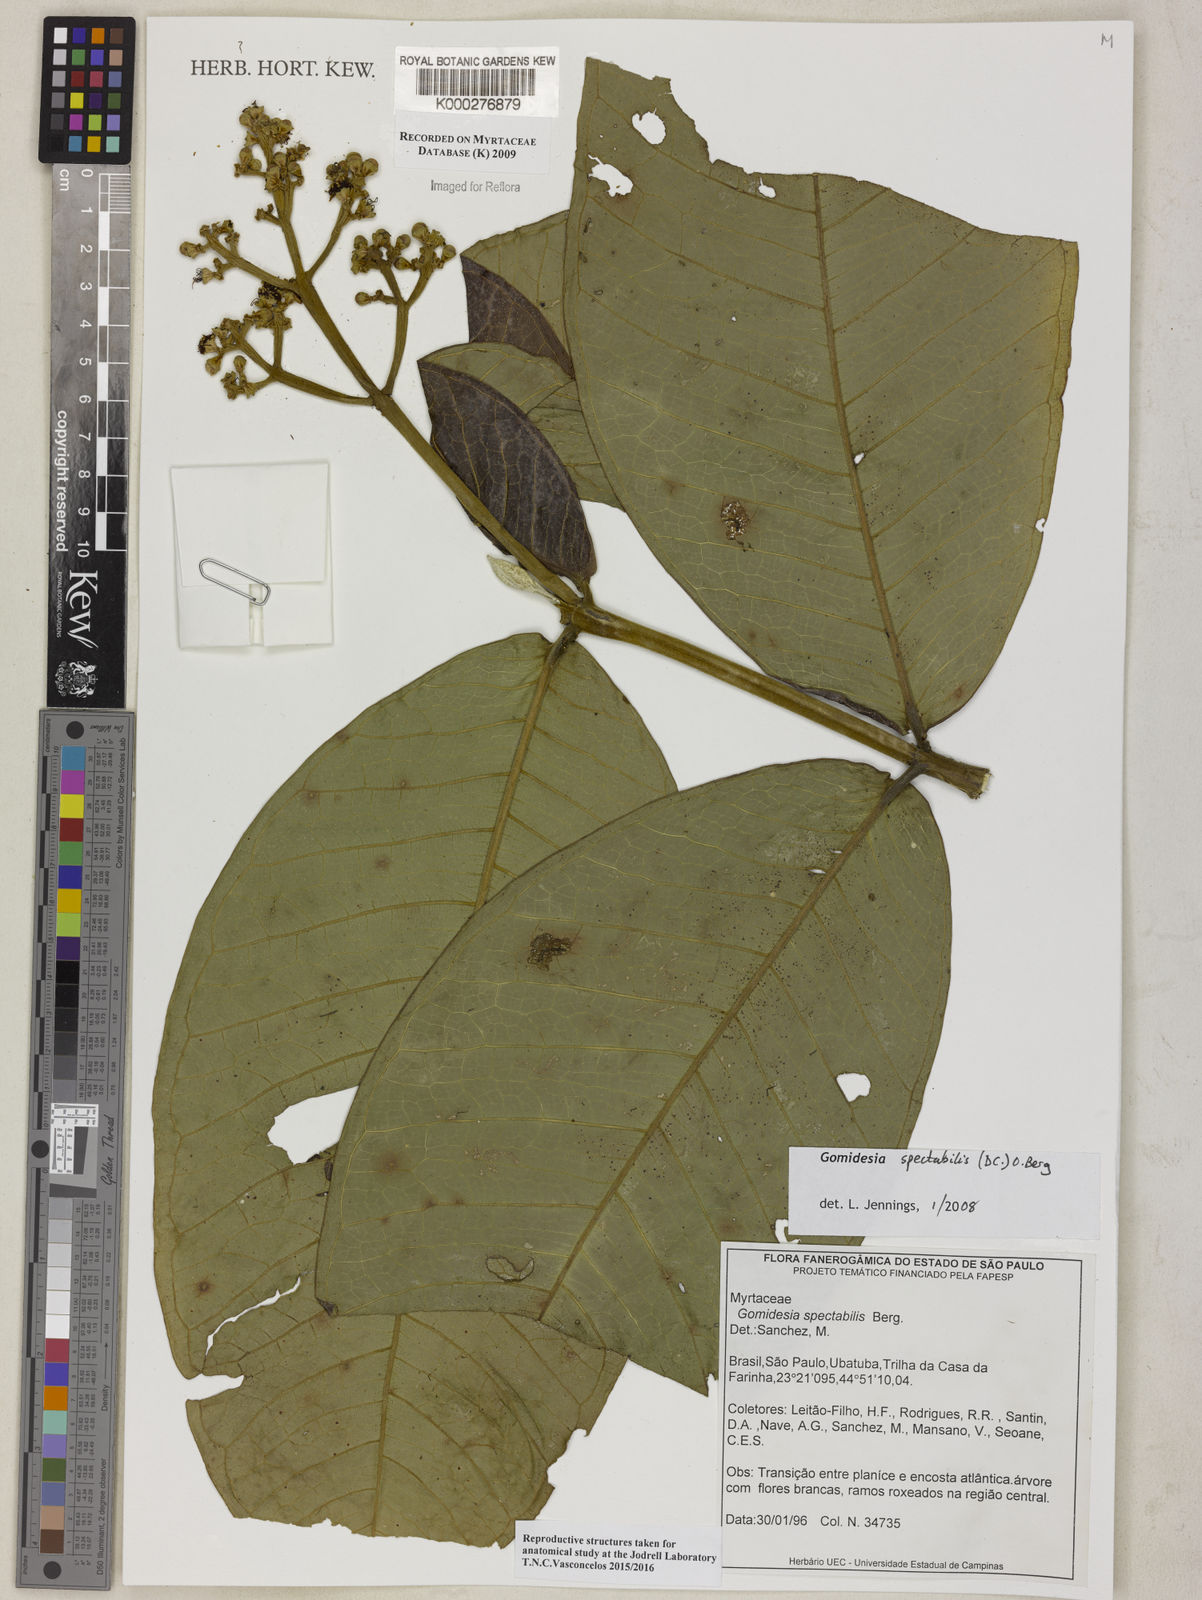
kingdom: Plantae
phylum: Tracheophyta
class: Magnoliopsida
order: Myrtales
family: Myrtaceae
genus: Myrcia
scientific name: Myrcia spectabilis
